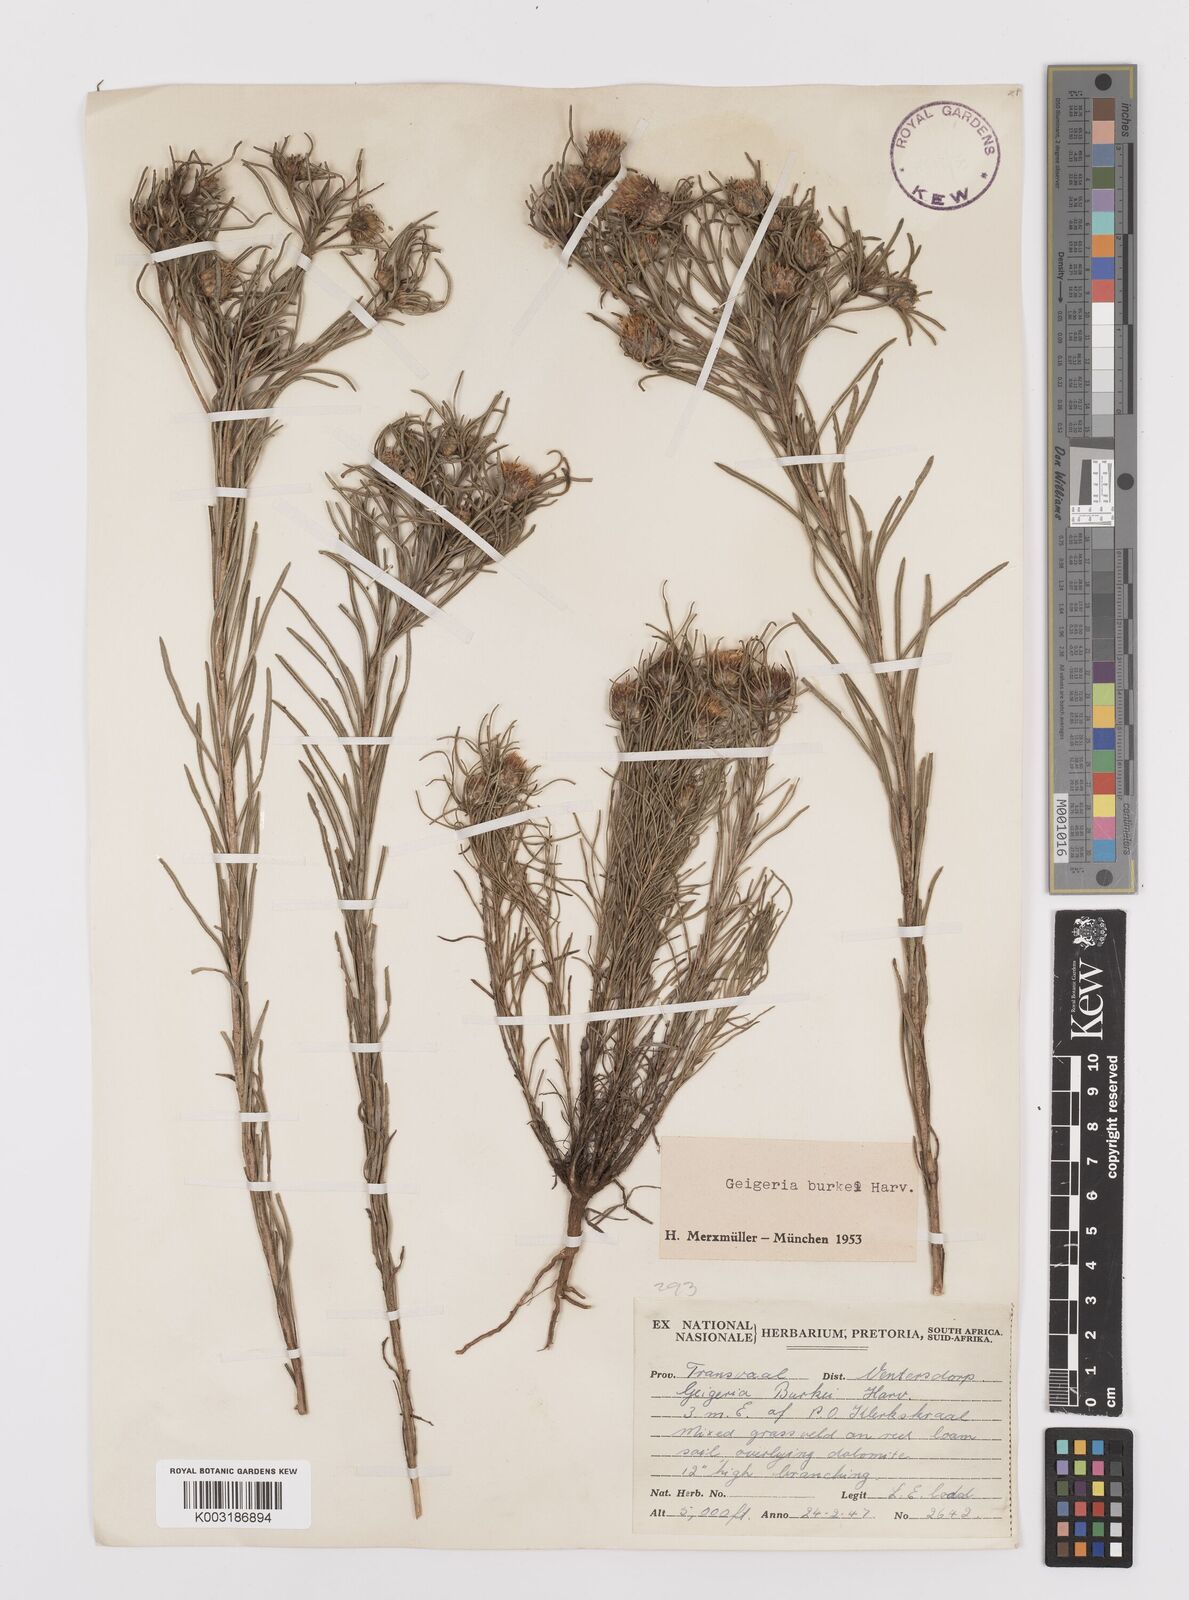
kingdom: Plantae
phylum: Tracheophyta
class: Magnoliopsida
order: Asterales
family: Asteraceae
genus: Geigeria
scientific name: Geigeria burkei
